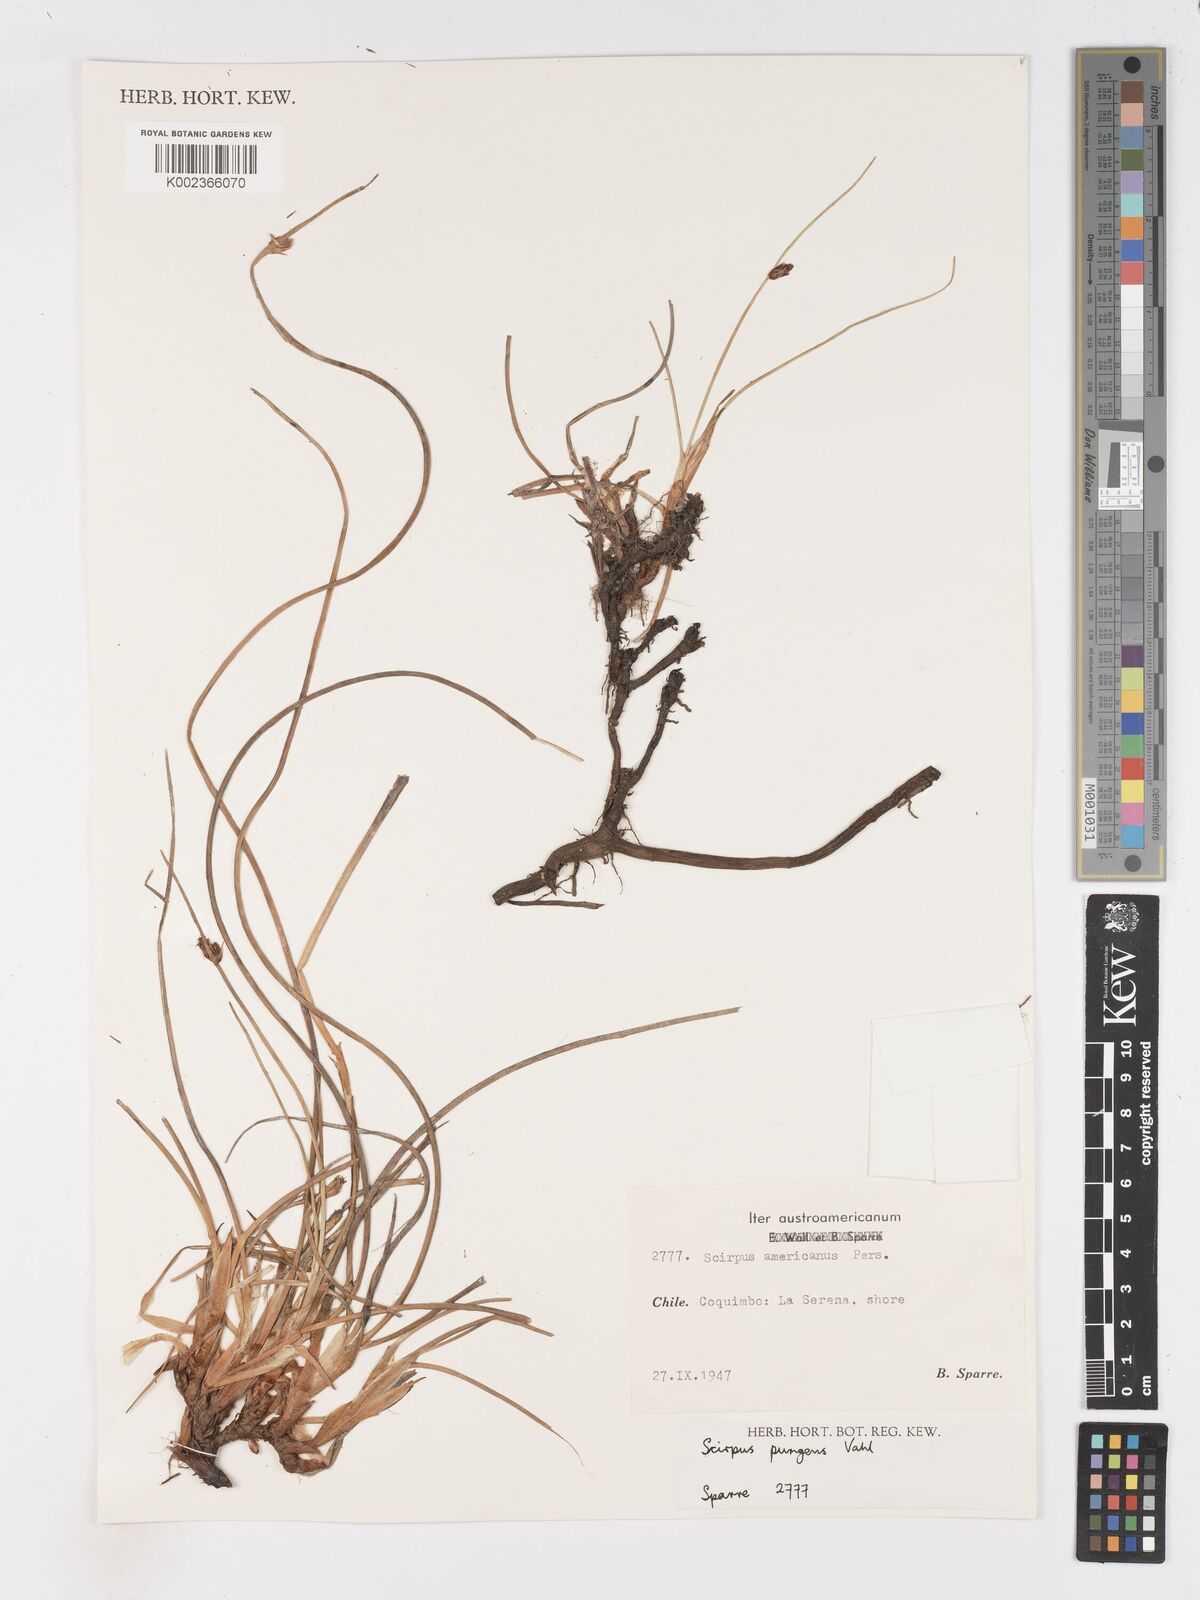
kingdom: Plantae
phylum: Tracheophyta
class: Liliopsida
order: Poales
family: Cyperaceae
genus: Schoenoplectus
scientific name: Schoenoplectus pungens
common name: Sharp club-rush
